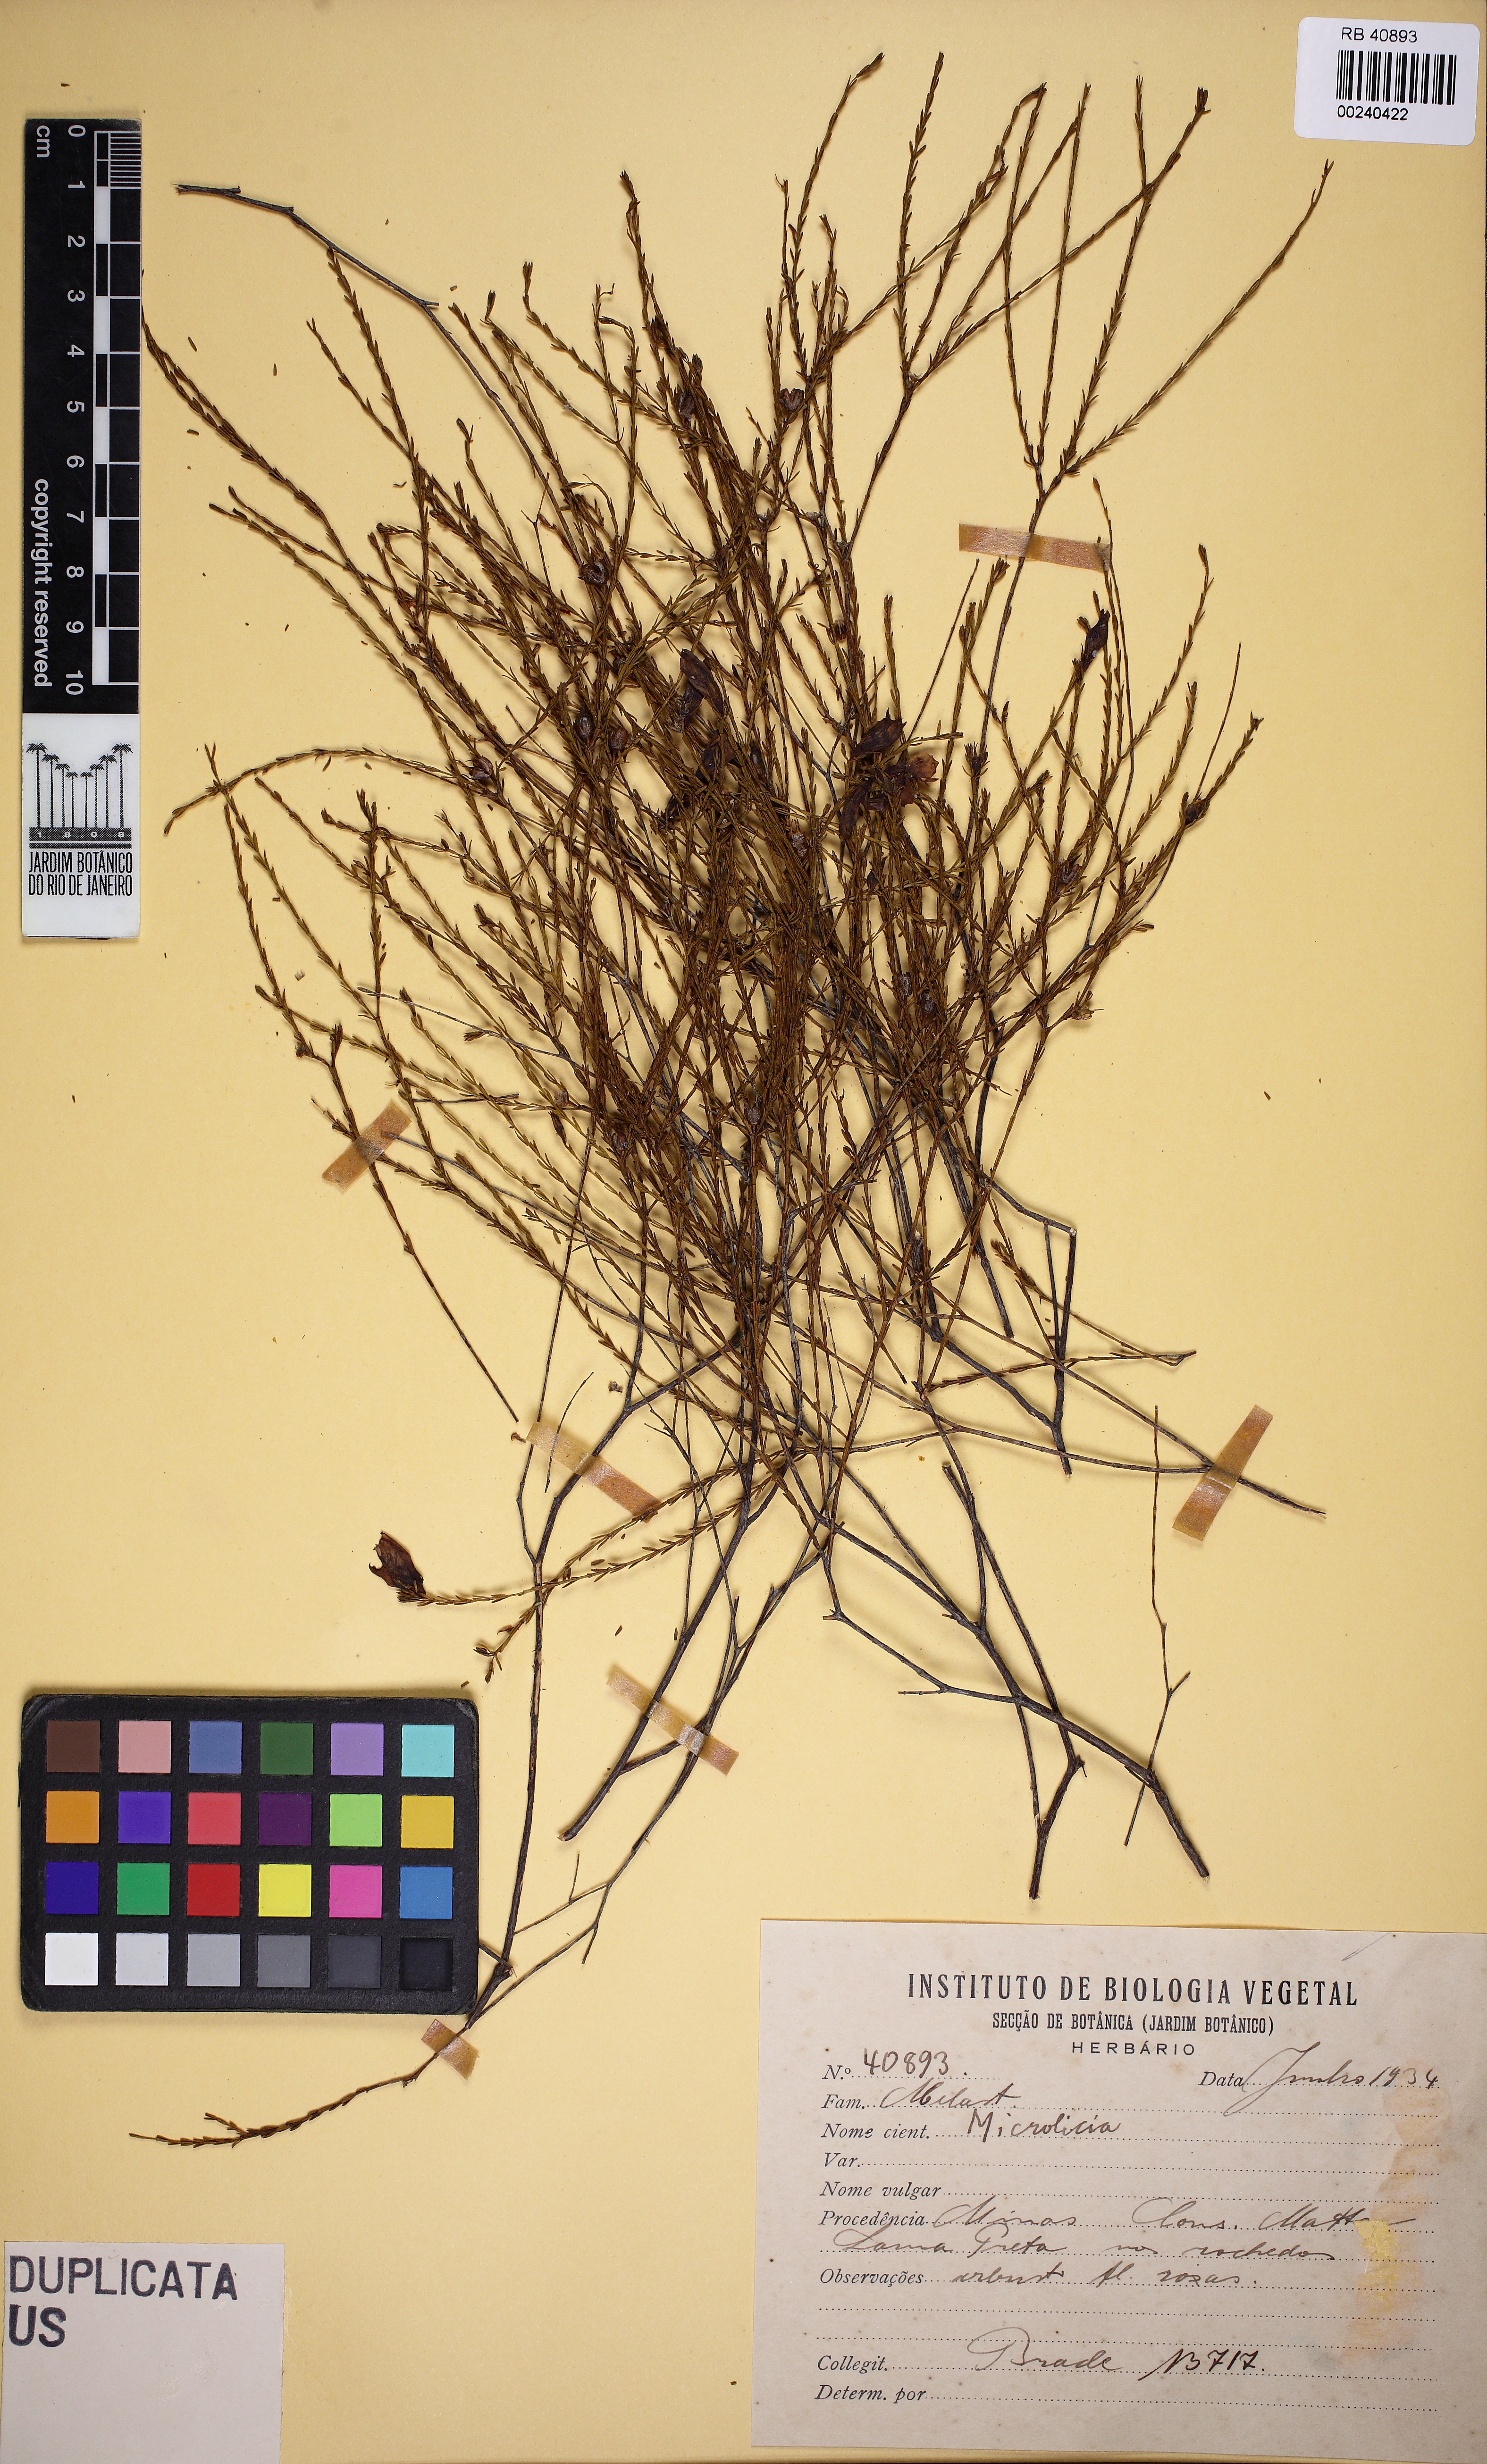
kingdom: Plantae
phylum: Tracheophyta
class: Magnoliopsida
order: Myrtales
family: Melastomataceae
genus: Microlicia
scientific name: Microlicia
